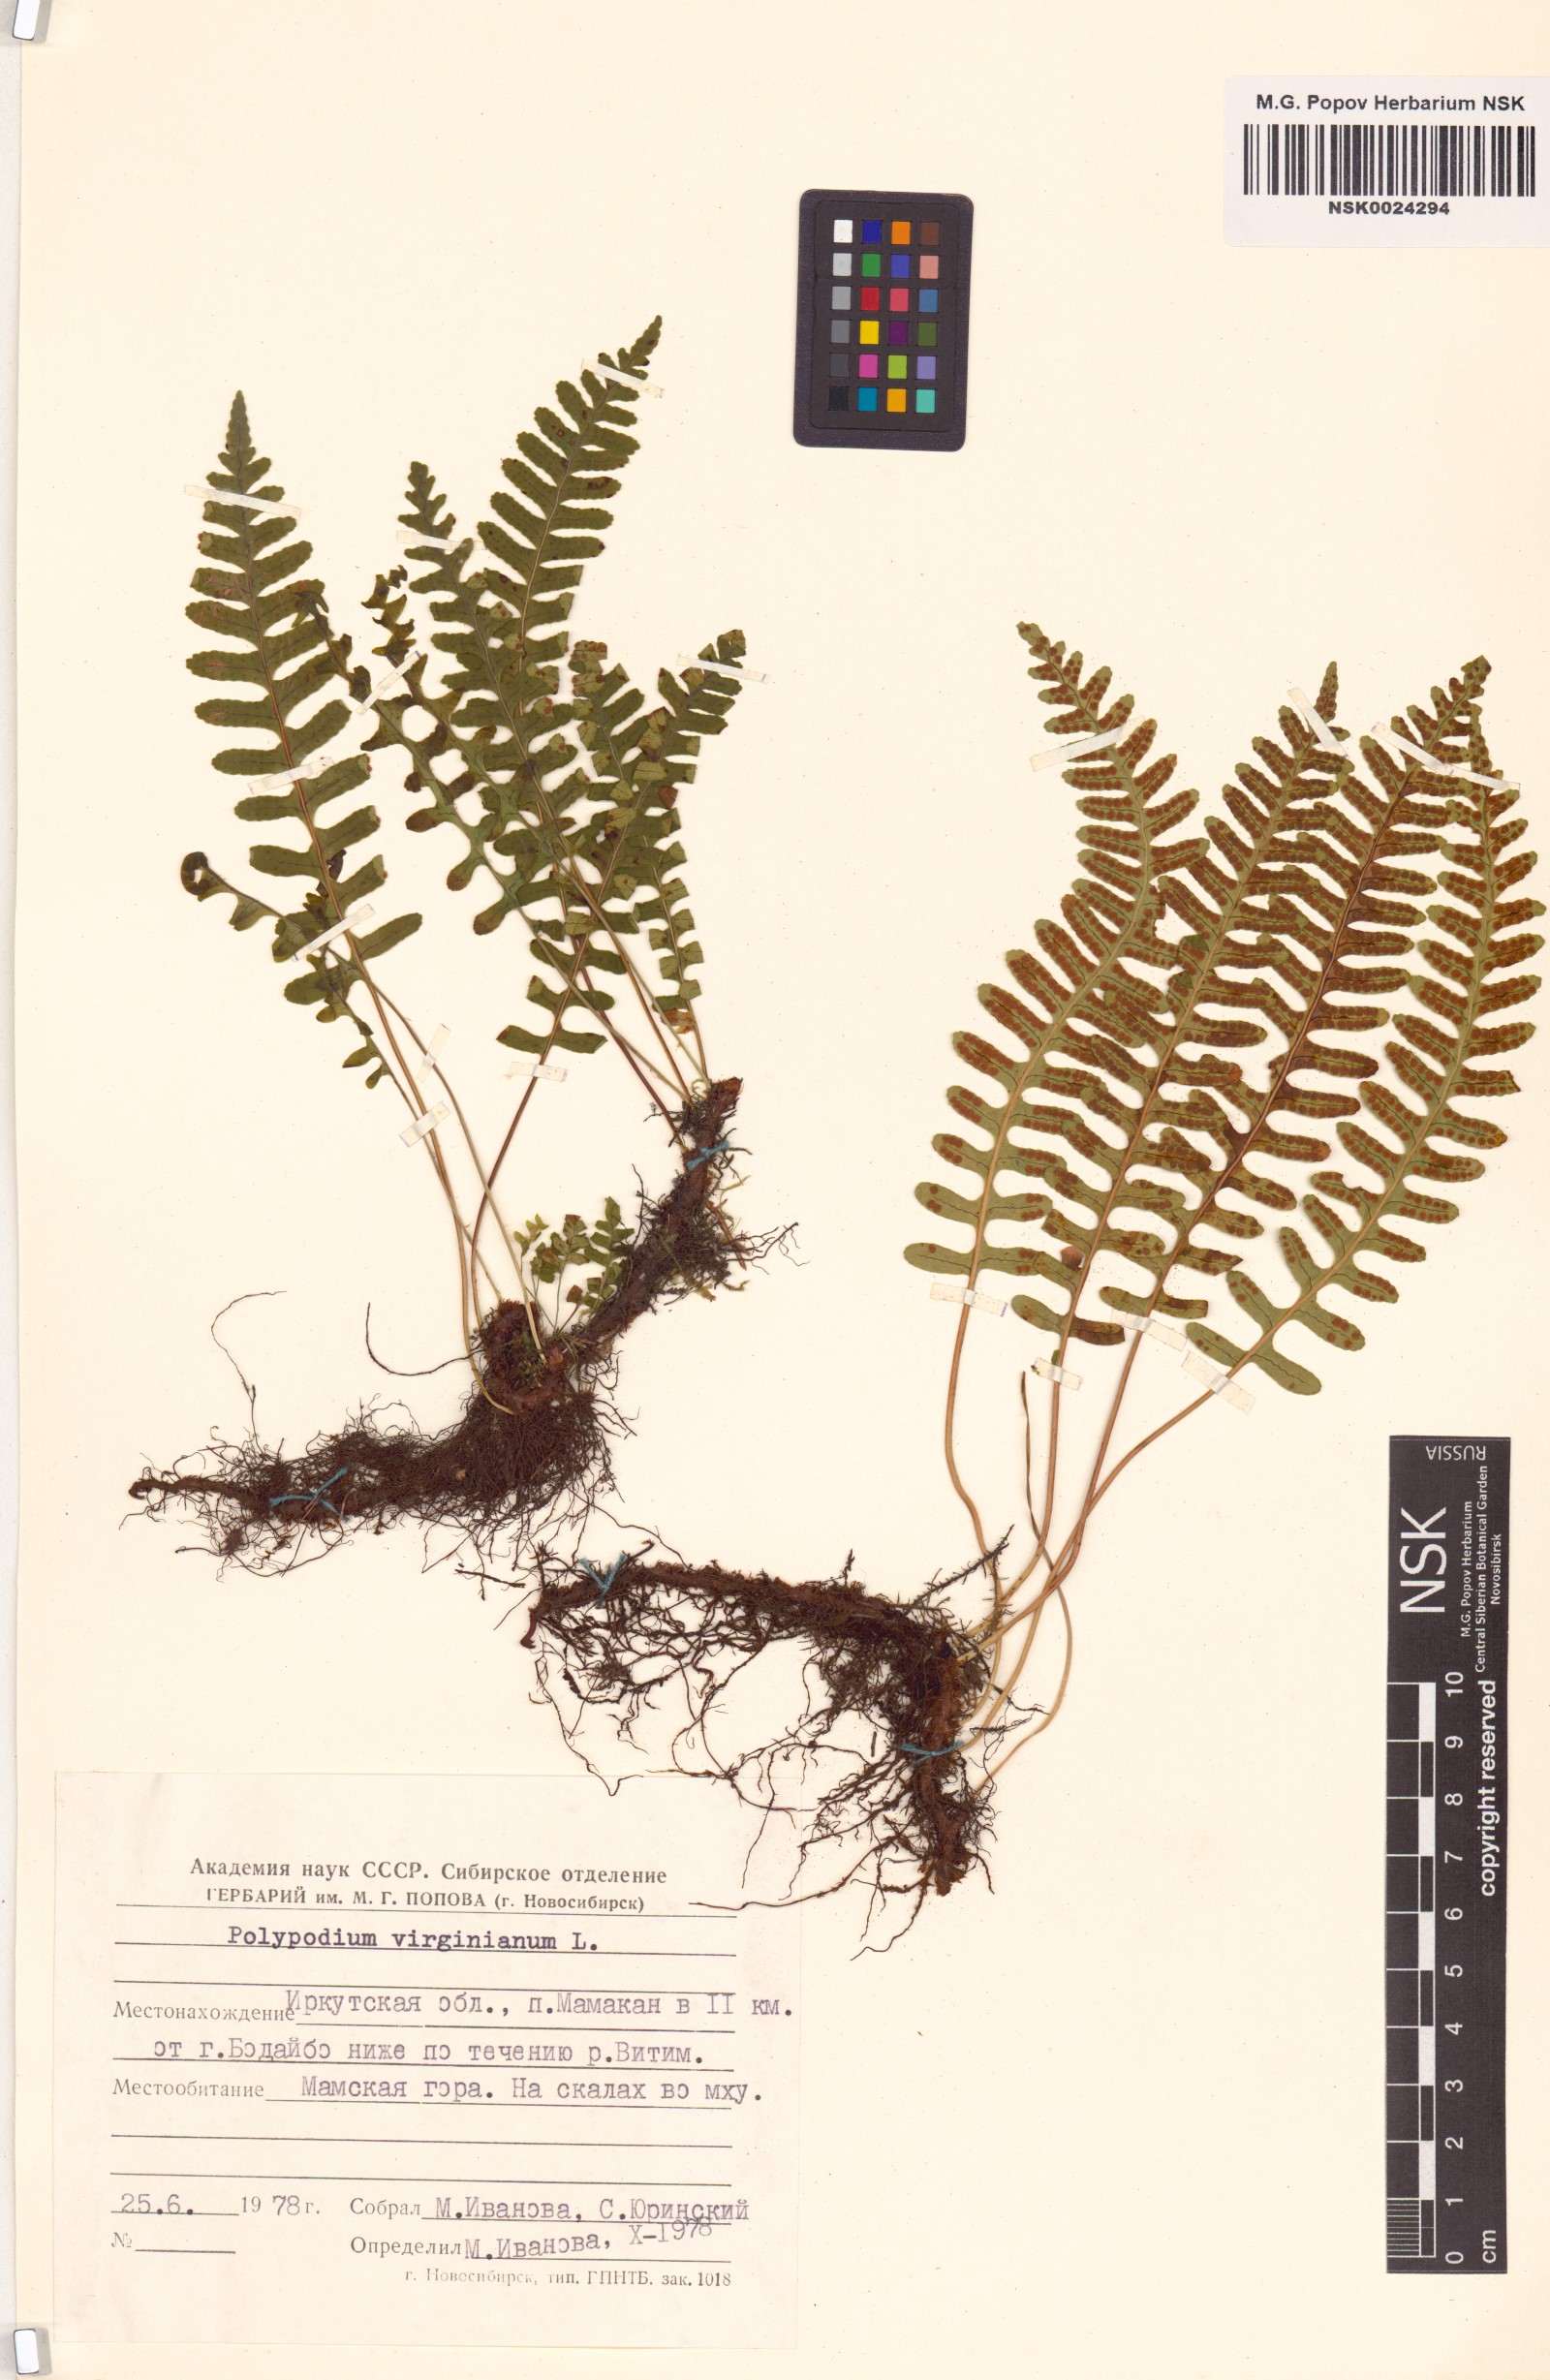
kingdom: Plantae
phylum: Tracheophyta
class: Polypodiopsida
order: Polypodiales
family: Polypodiaceae
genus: Polypodium
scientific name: Polypodium virginianum
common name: American wall fern
